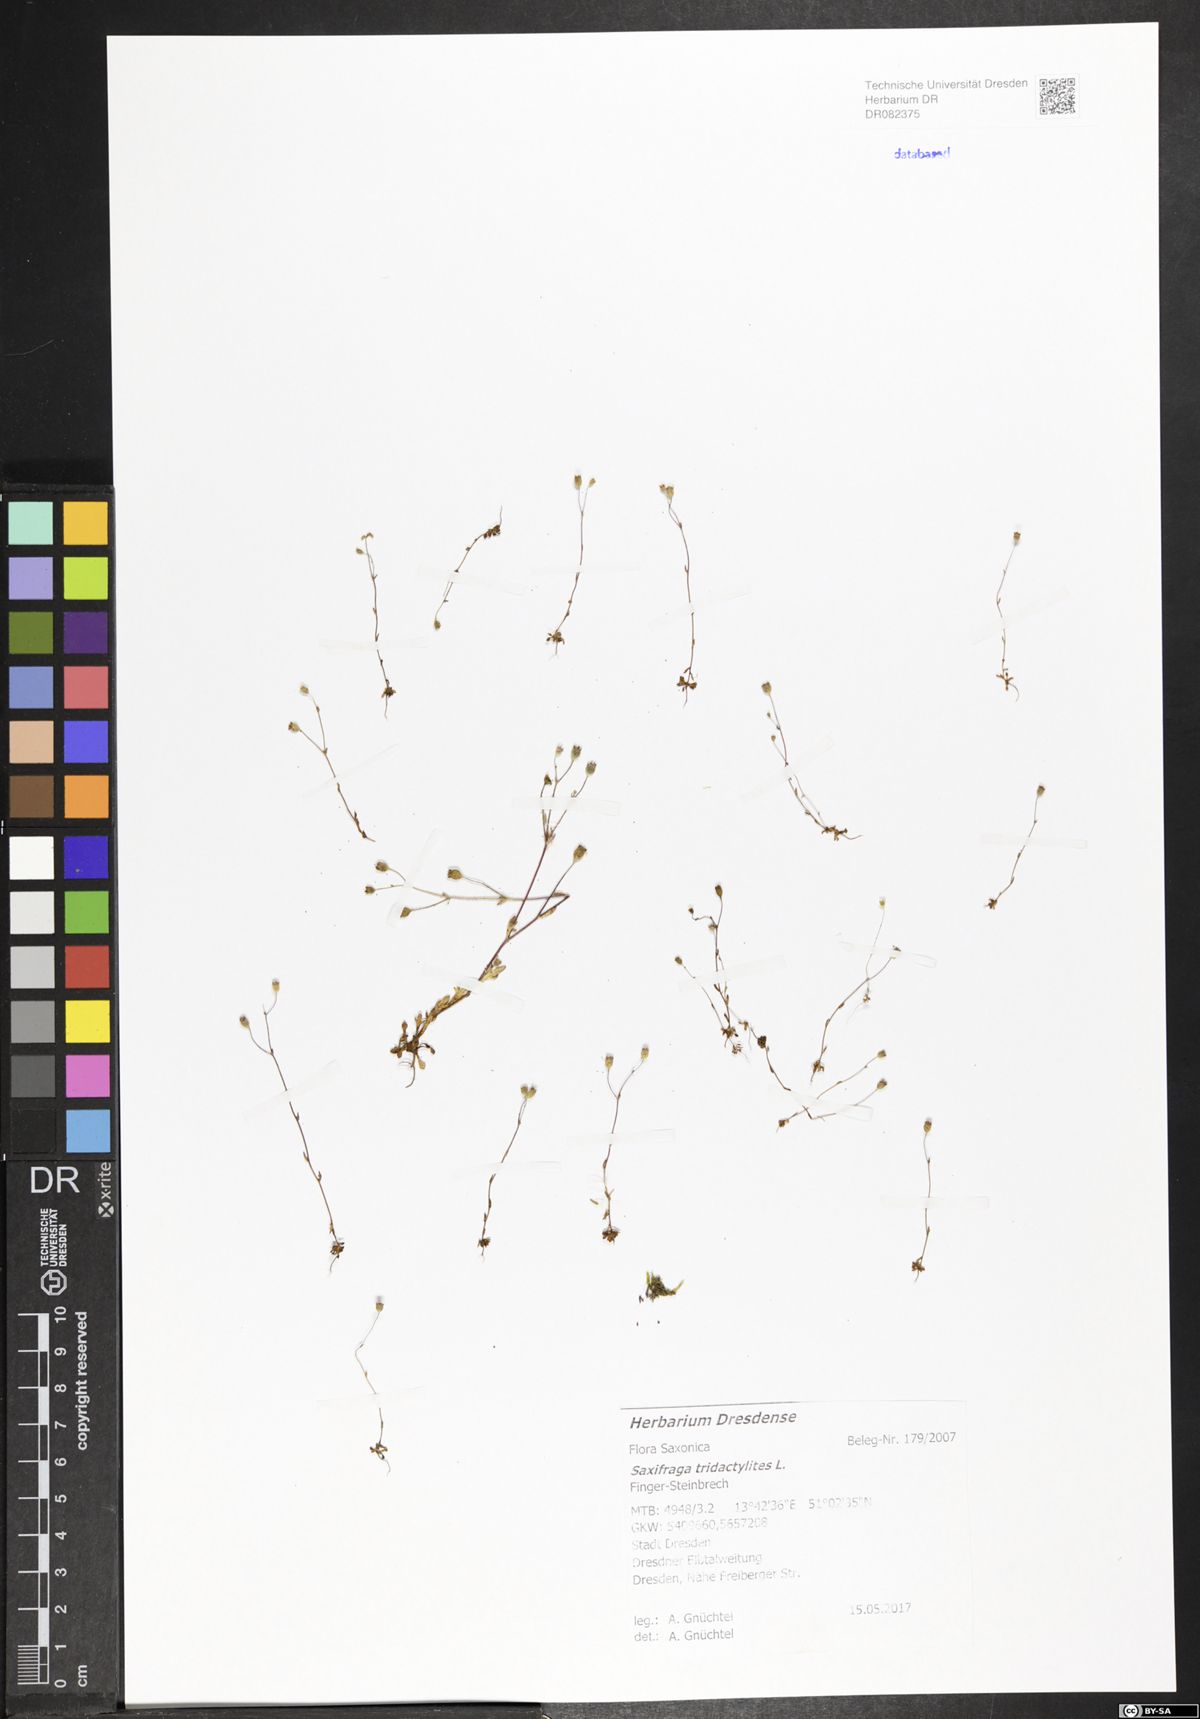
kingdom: Plantae
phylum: Tracheophyta
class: Magnoliopsida
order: Saxifragales
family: Saxifragaceae
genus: Saxifraga
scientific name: Saxifraga tridactylites
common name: Rue-leaved saxifrage
